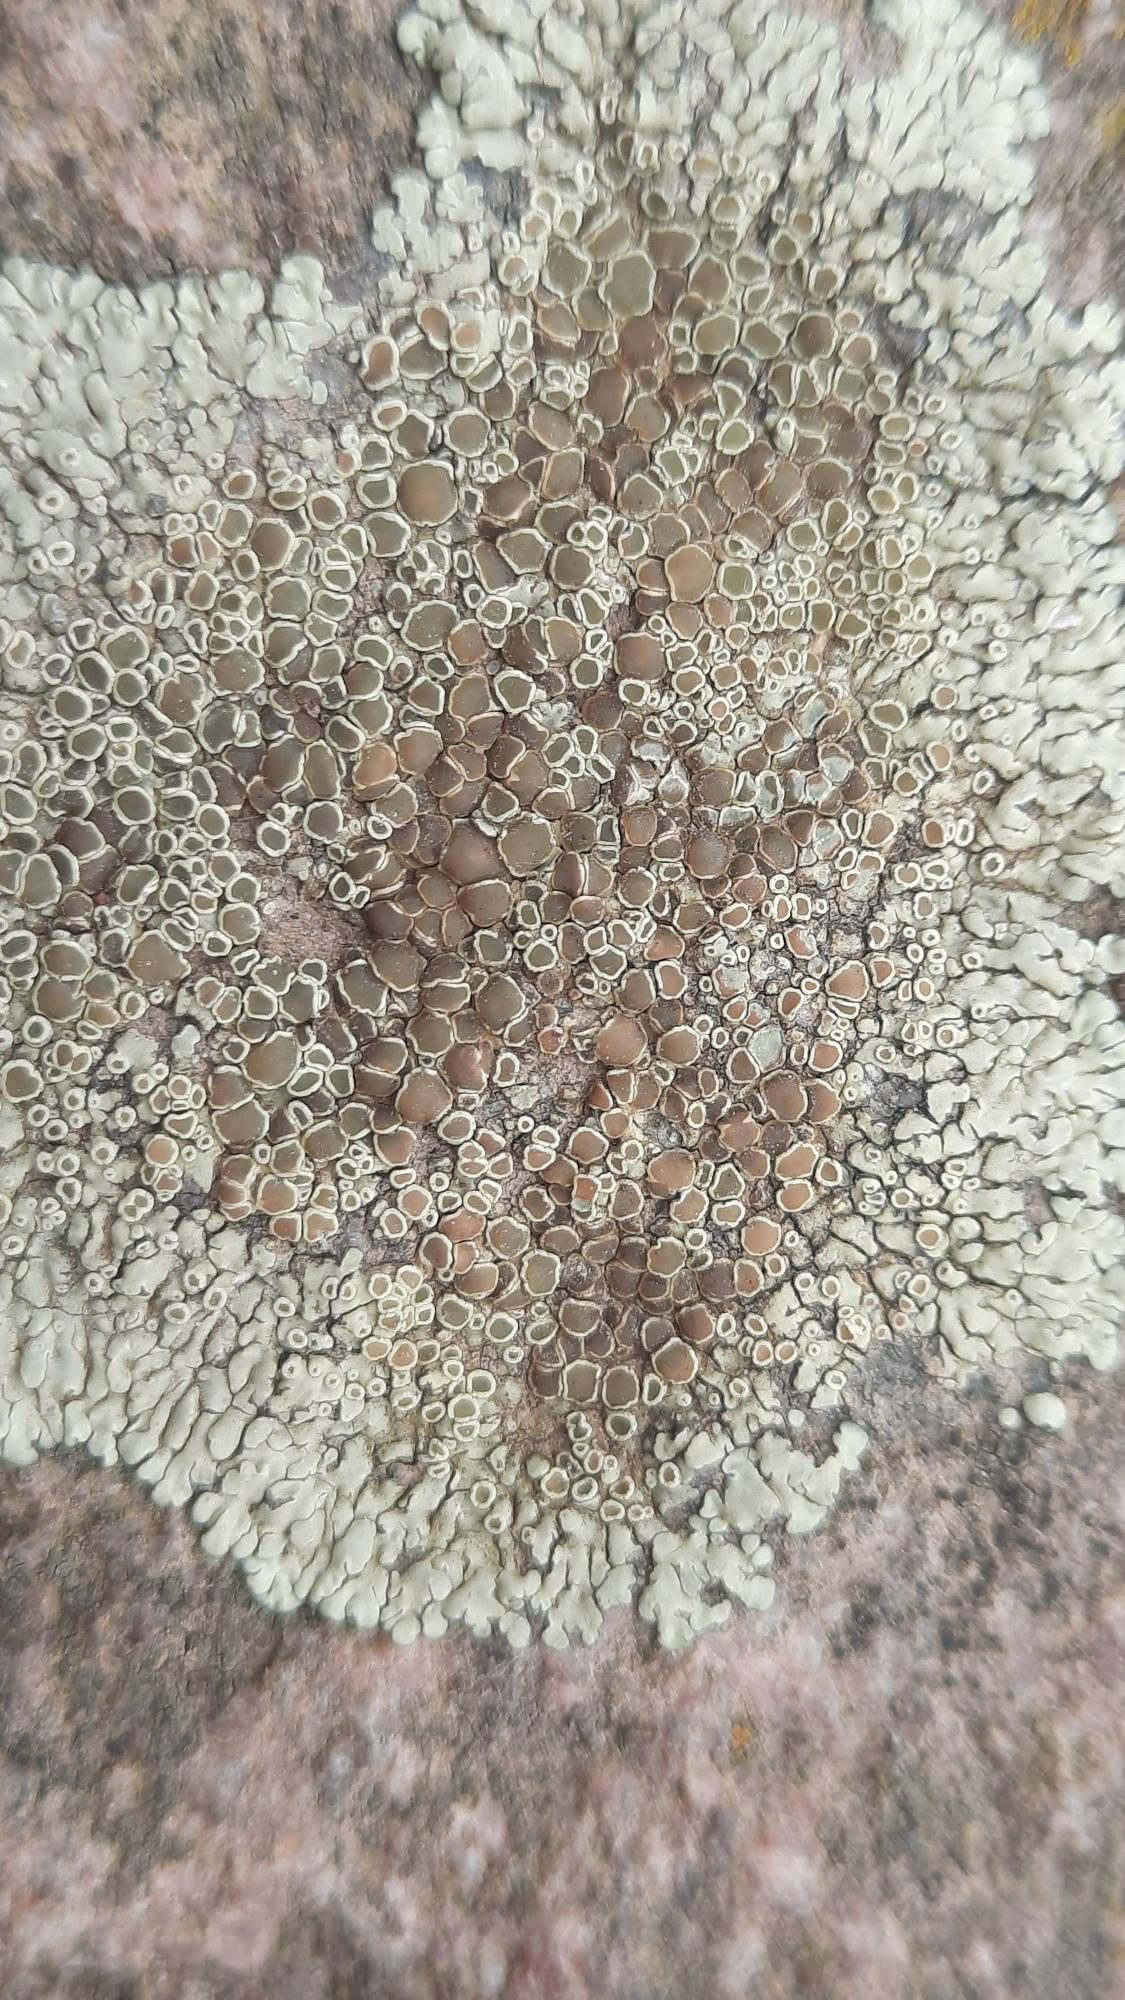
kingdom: Fungi
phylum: Ascomycota
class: Lecanoromycetes
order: Lecanorales
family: Lecanoraceae
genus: Protoparmeliopsis
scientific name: Protoparmeliopsis muralis
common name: Randfliget kantskivelav
